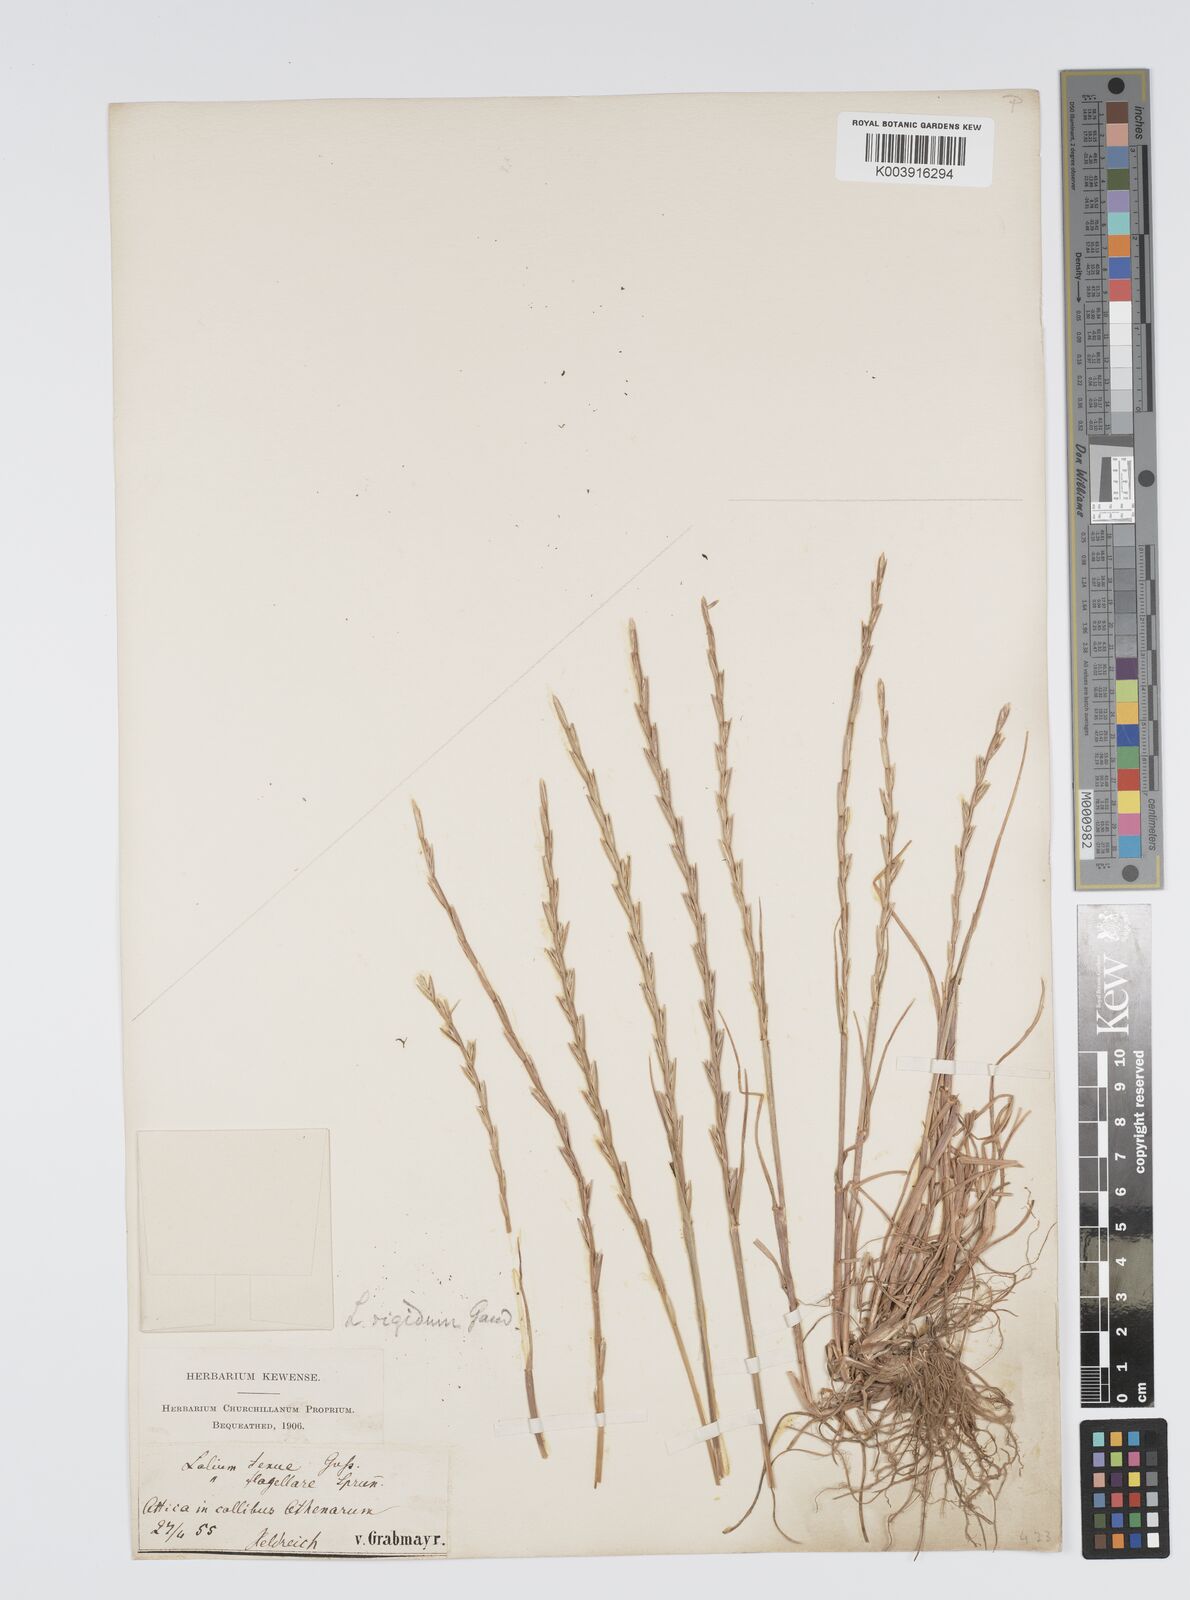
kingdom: Plantae
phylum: Tracheophyta
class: Liliopsida
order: Poales
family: Poaceae
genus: Lolium
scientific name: Lolium rigidum
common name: Wimmera ryegrass
